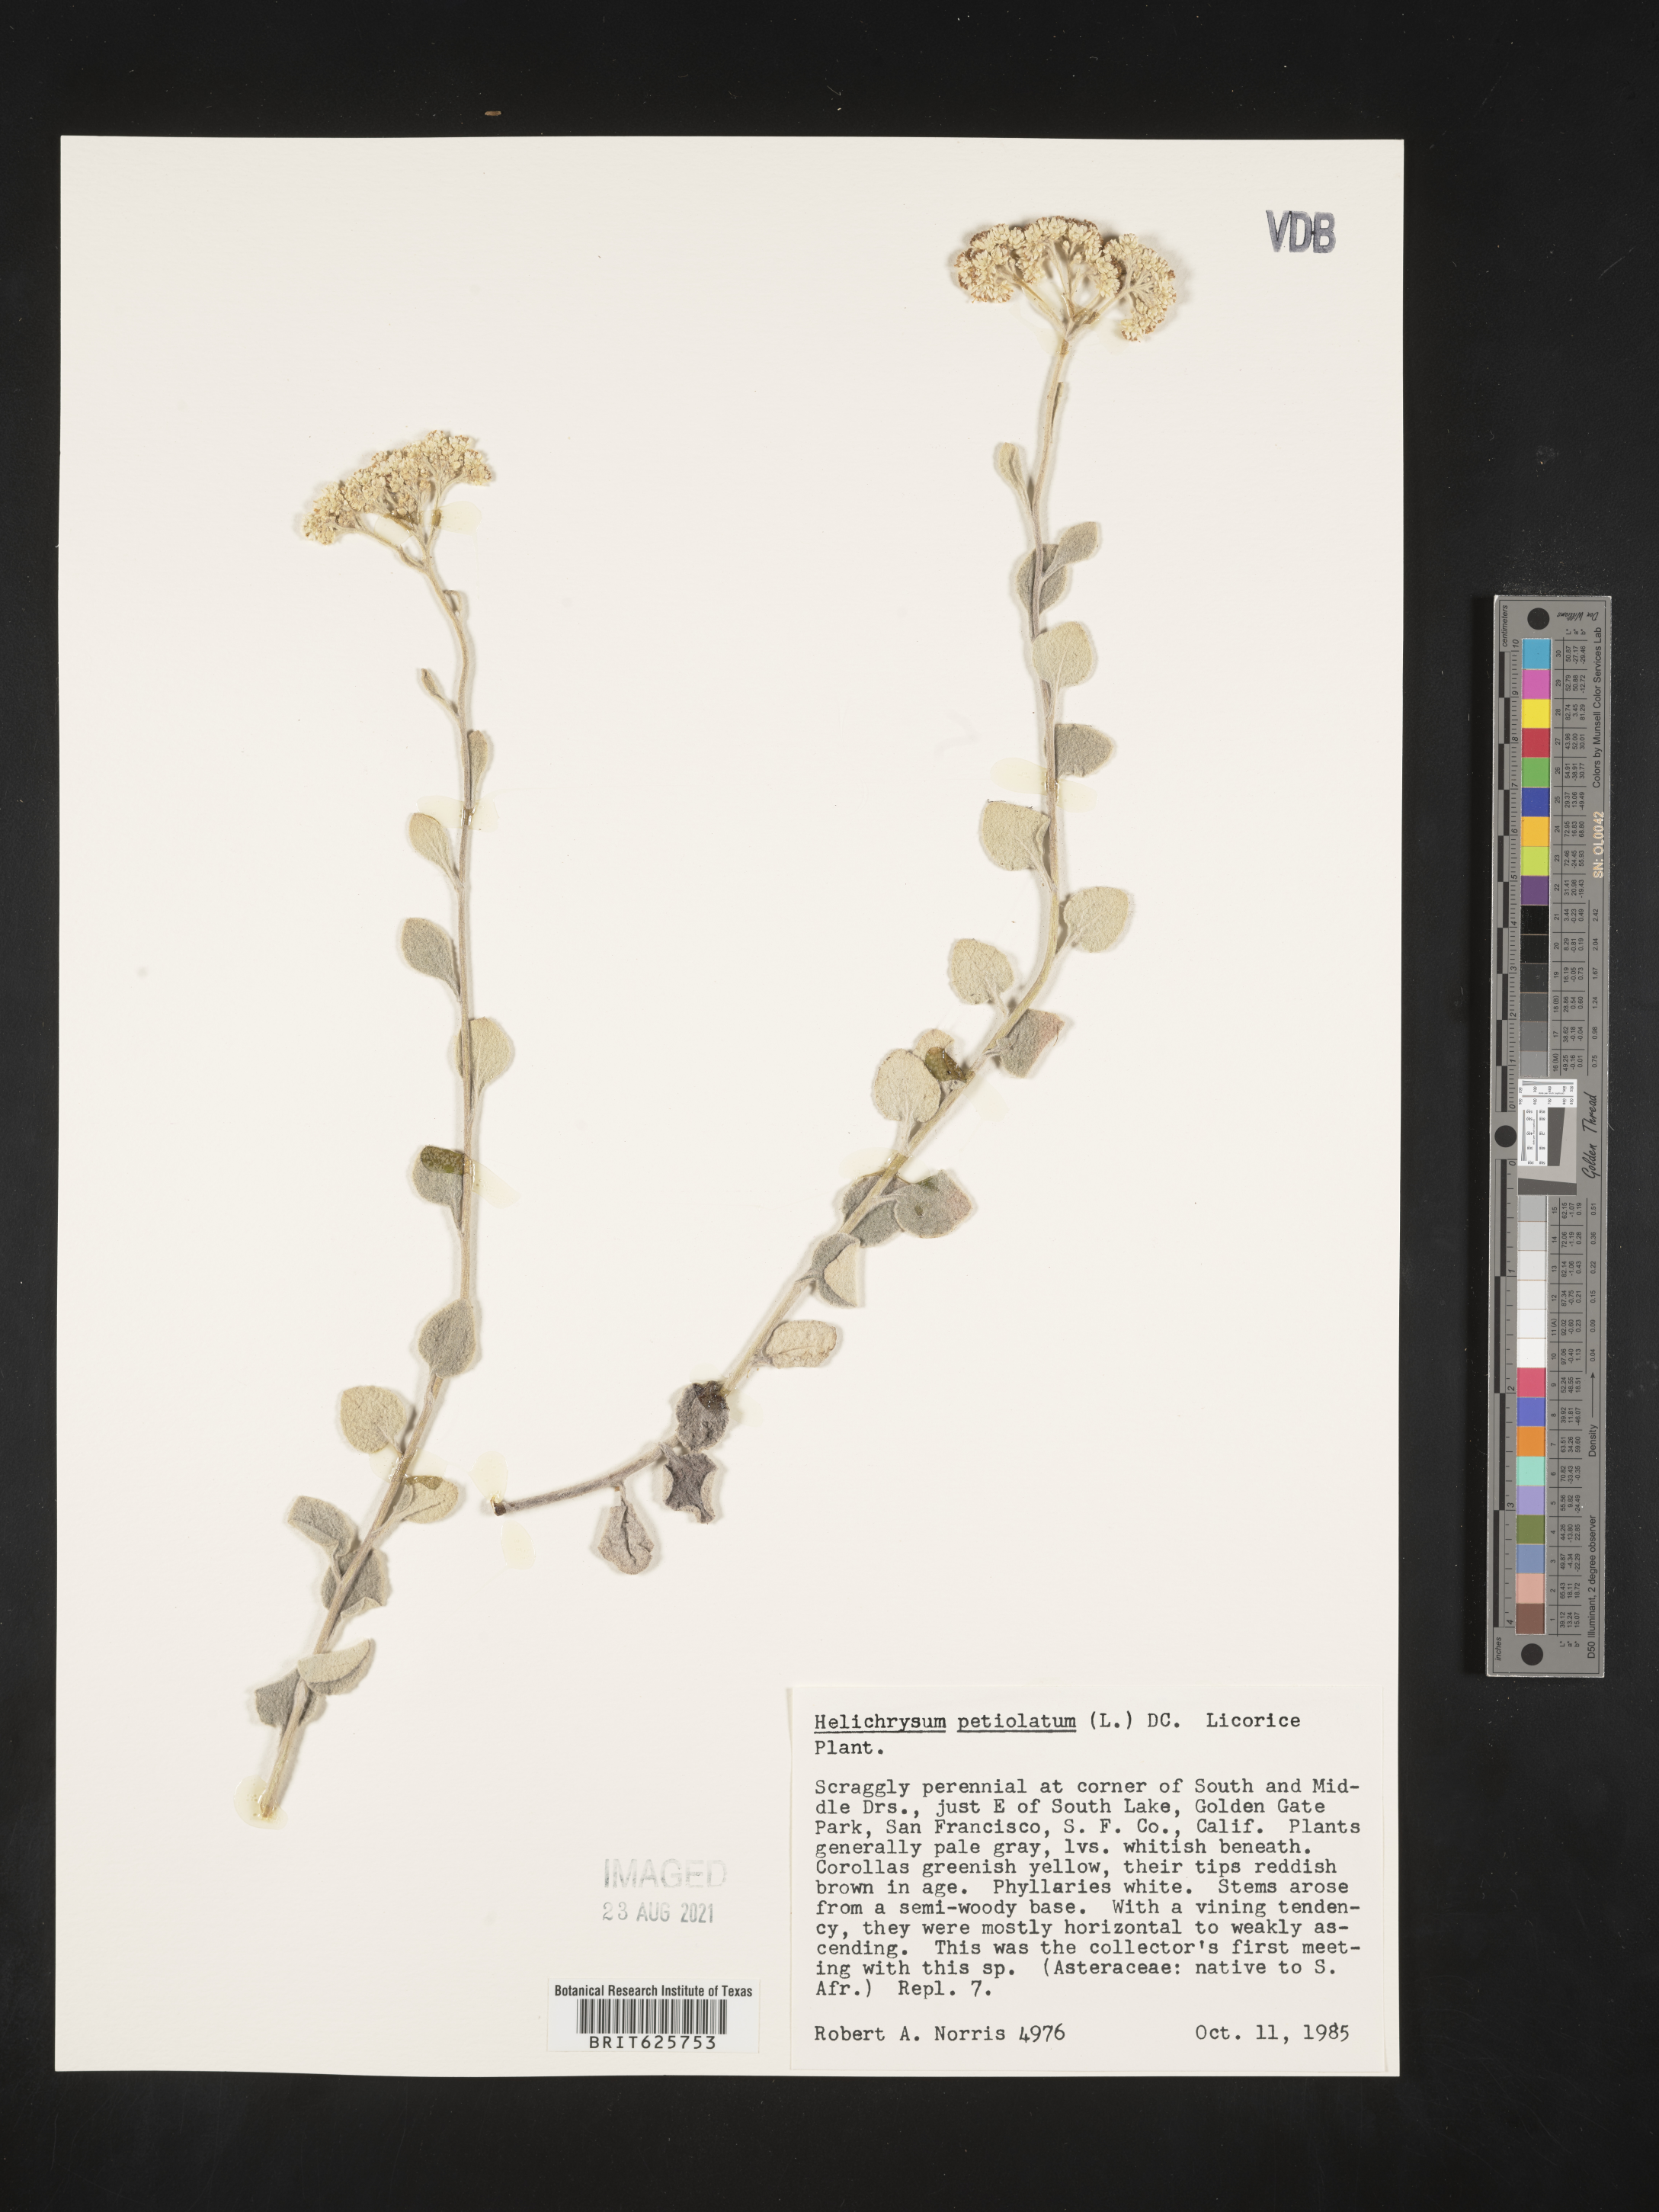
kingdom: Plantae
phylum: Tracheophyta
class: Magnoliopsida
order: Asterales
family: Asteraceae
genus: Helichrysum
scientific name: Helichrysum petiolare
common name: Licorice-plant
